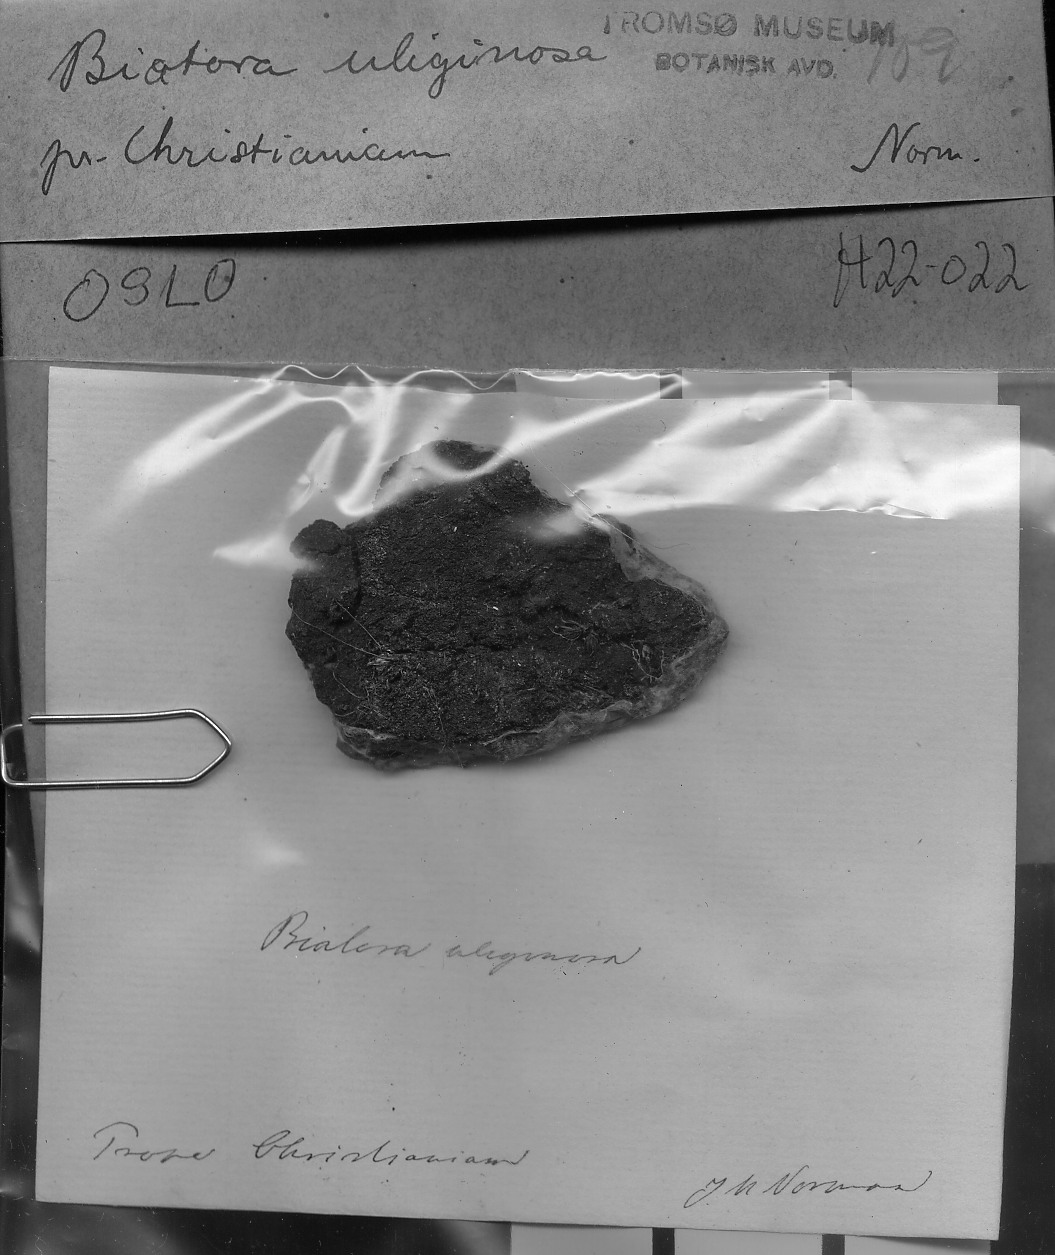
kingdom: Fungi
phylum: Ascomycota
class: Lecanoromycetes
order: Baeomycetales
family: Trapeliaceae
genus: Placynthiella
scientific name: Placynthiella uliginosa
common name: Pear tar-spot lichen
